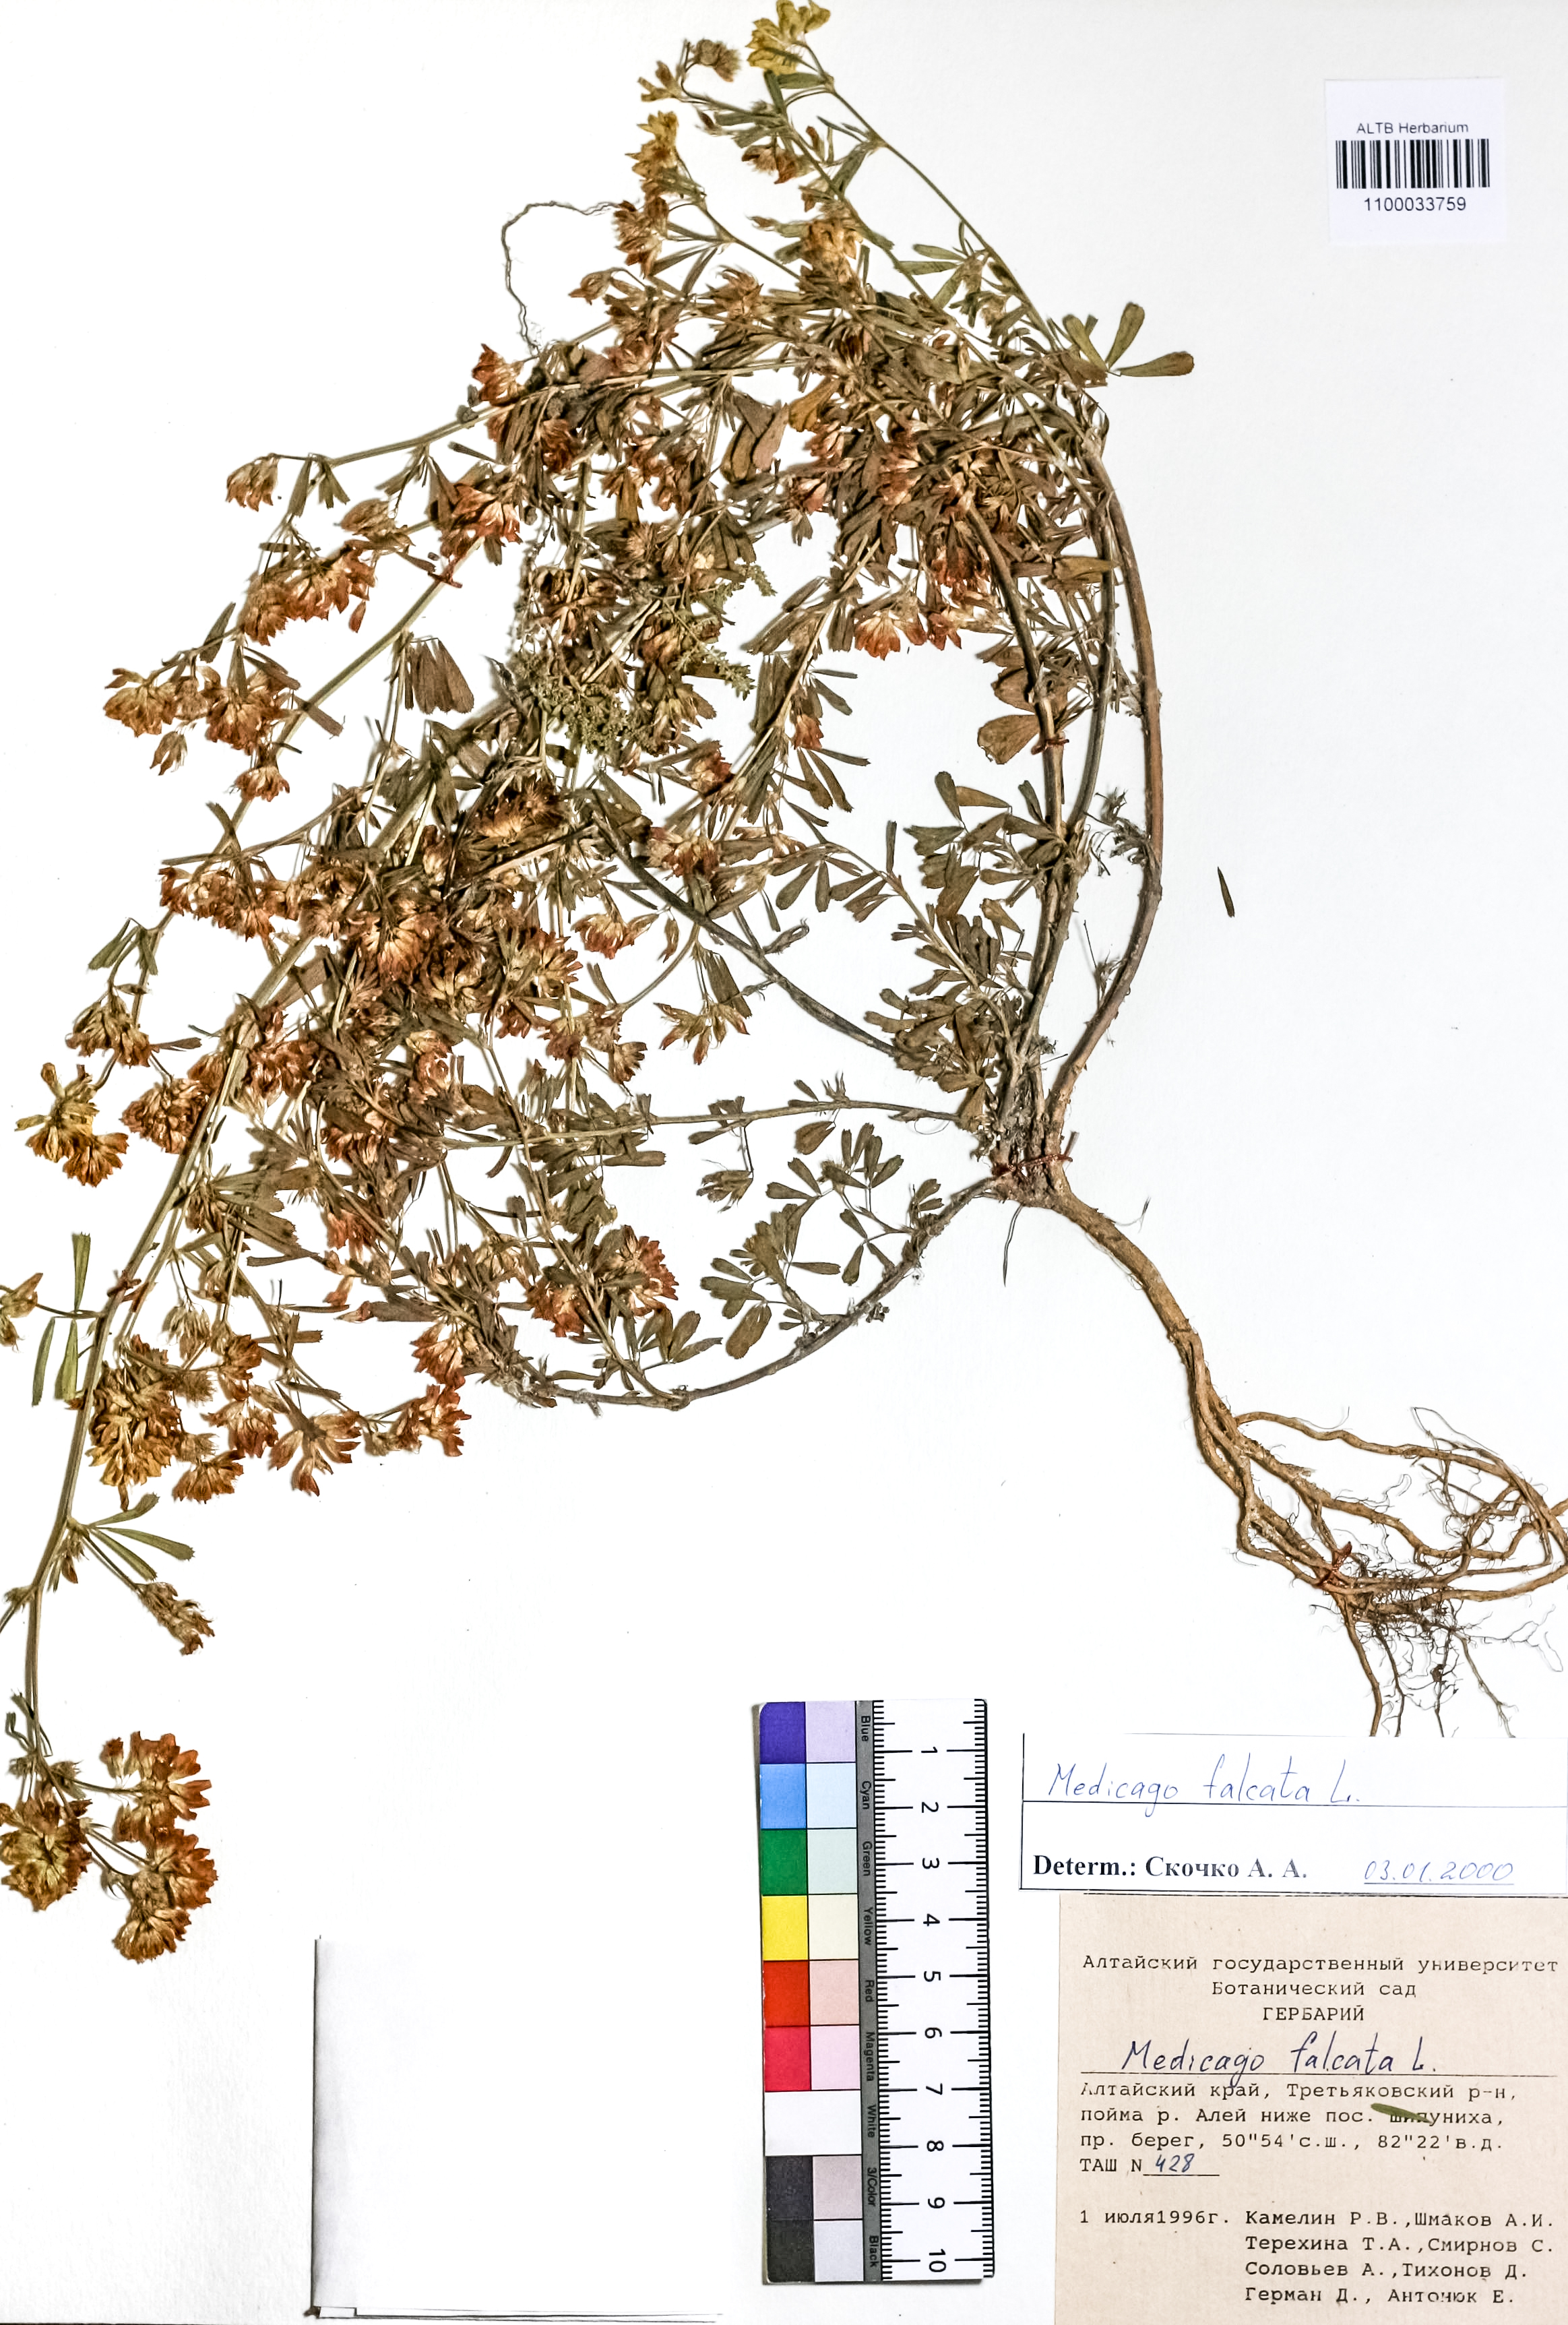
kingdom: Plantae
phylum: Tracheophyta
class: Magnoliopsida
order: Fabales
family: Fabaceae
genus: Medicago
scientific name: Medicago falcata
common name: Sickle medick
